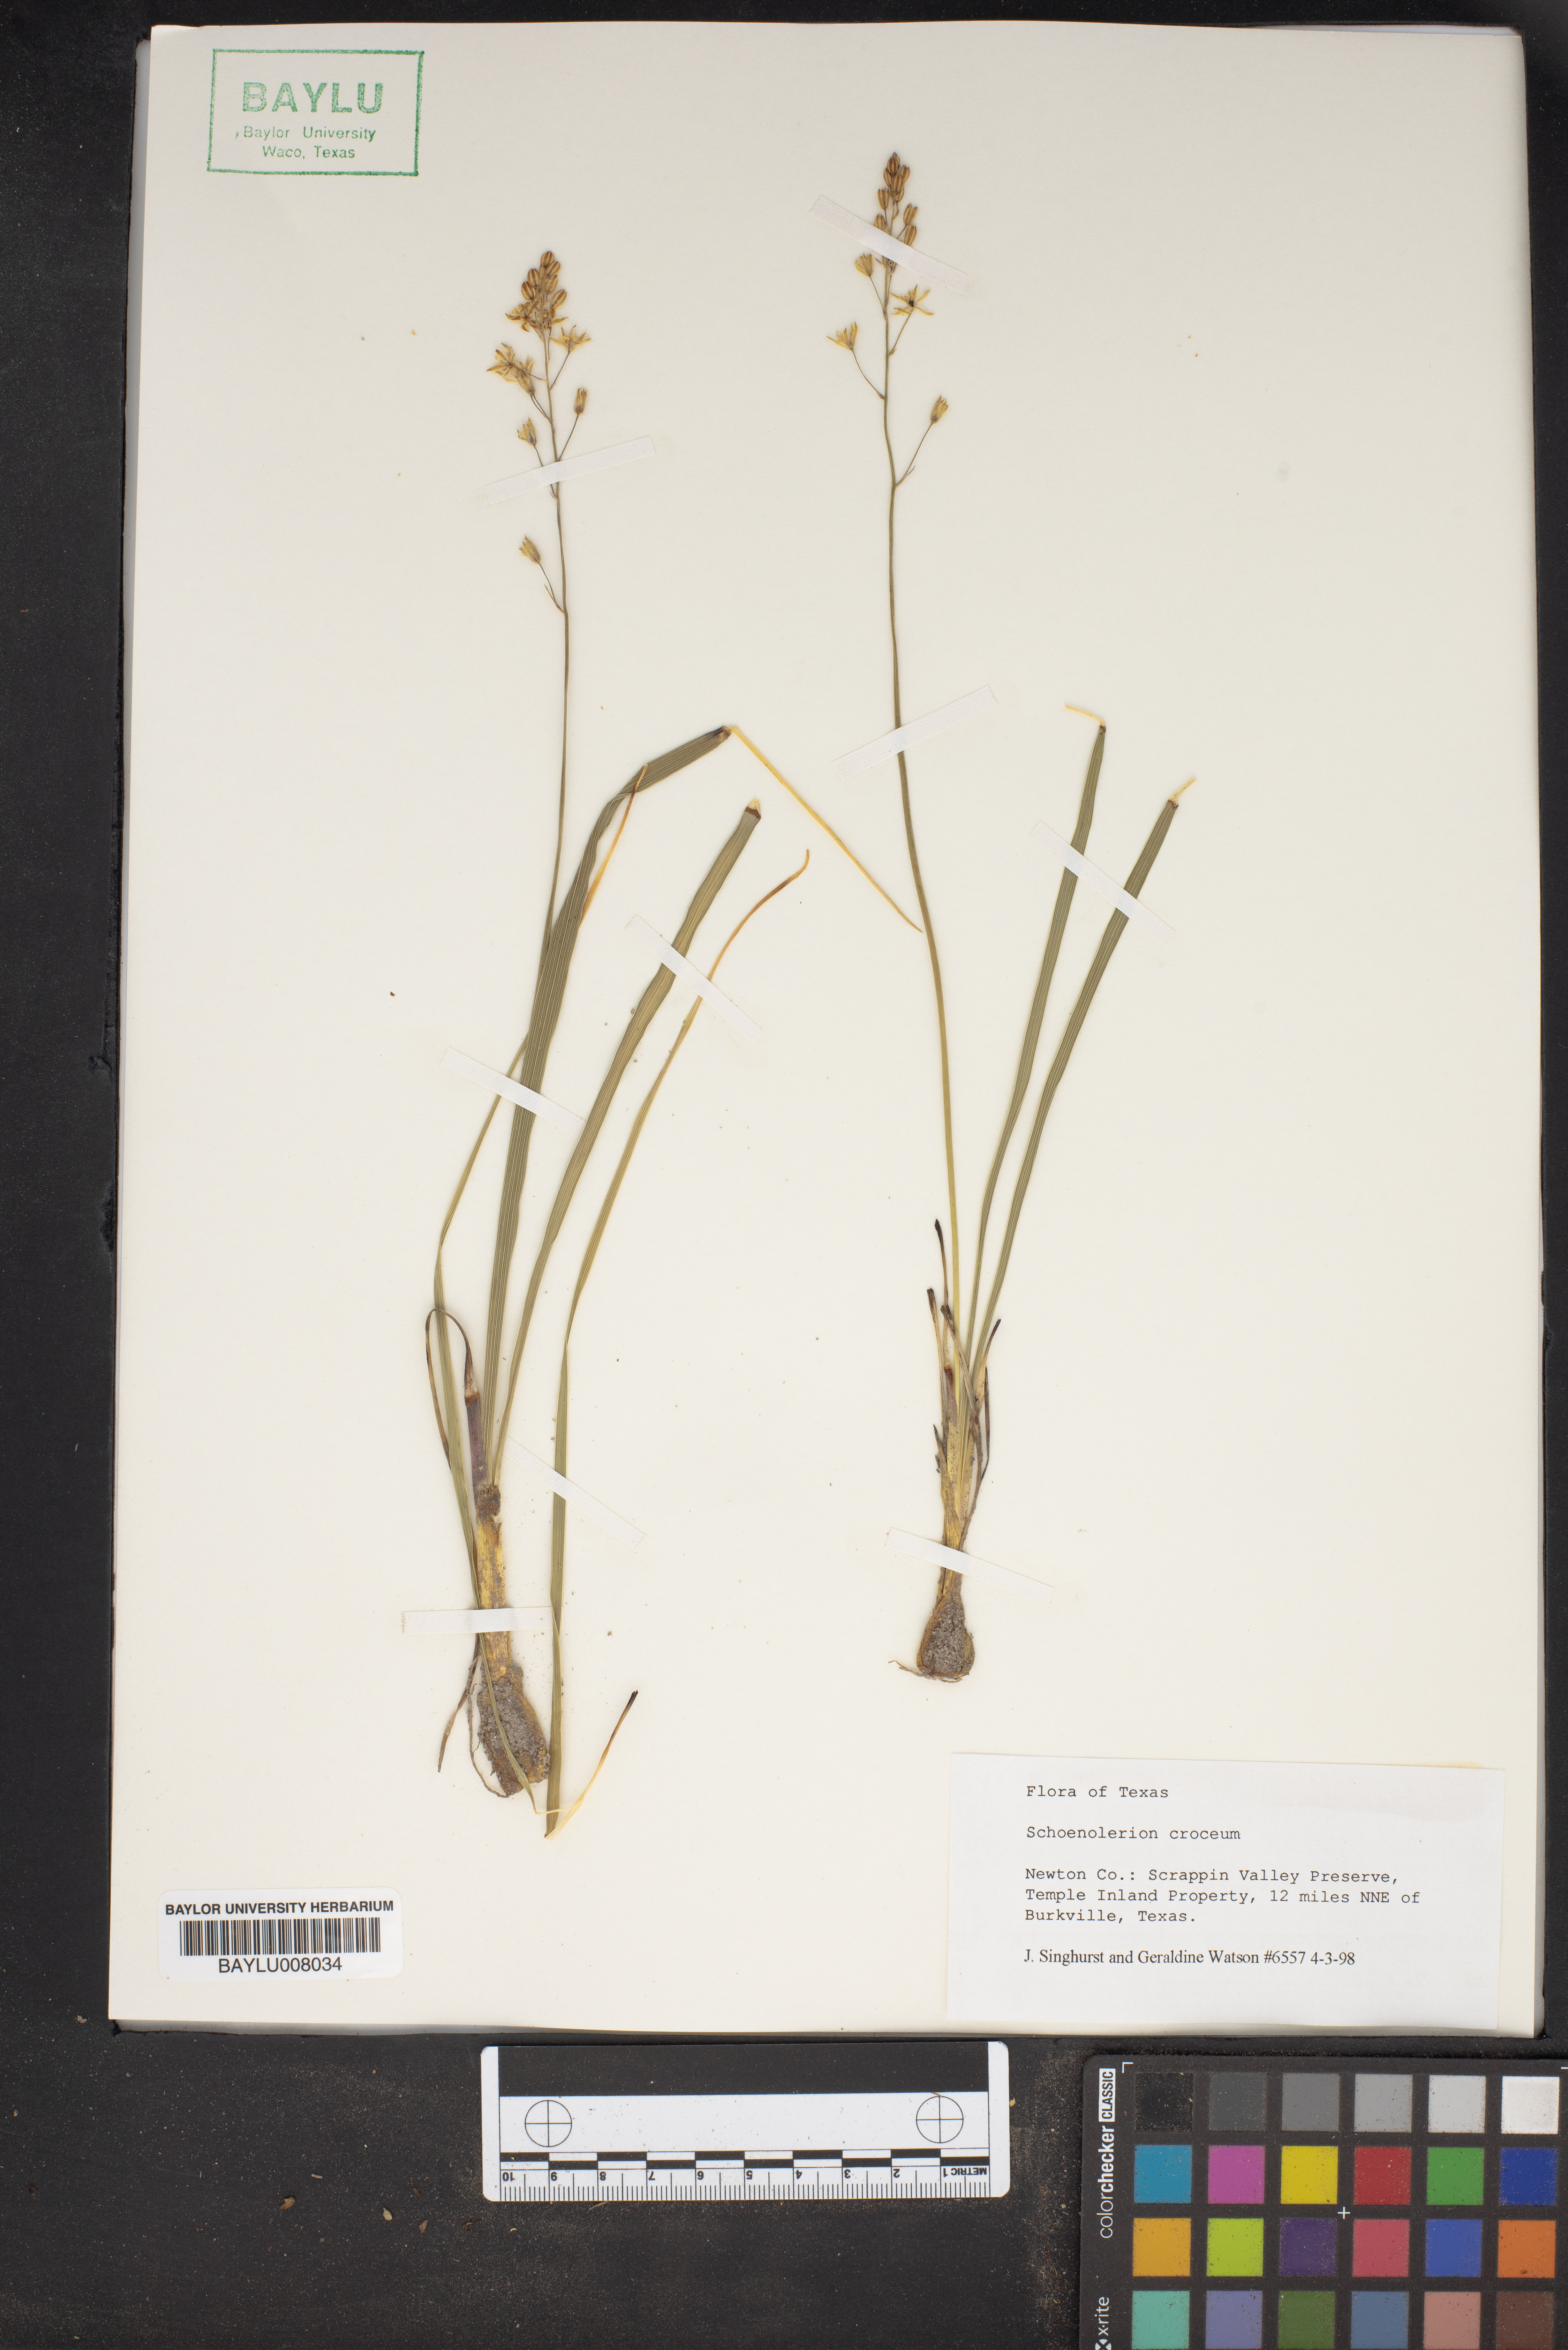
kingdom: Plantae
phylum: Tracheophyta
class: Liliopsida
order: Asparagales
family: Asparagaceae
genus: Schoenolirion
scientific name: Schoenolirion croceum
